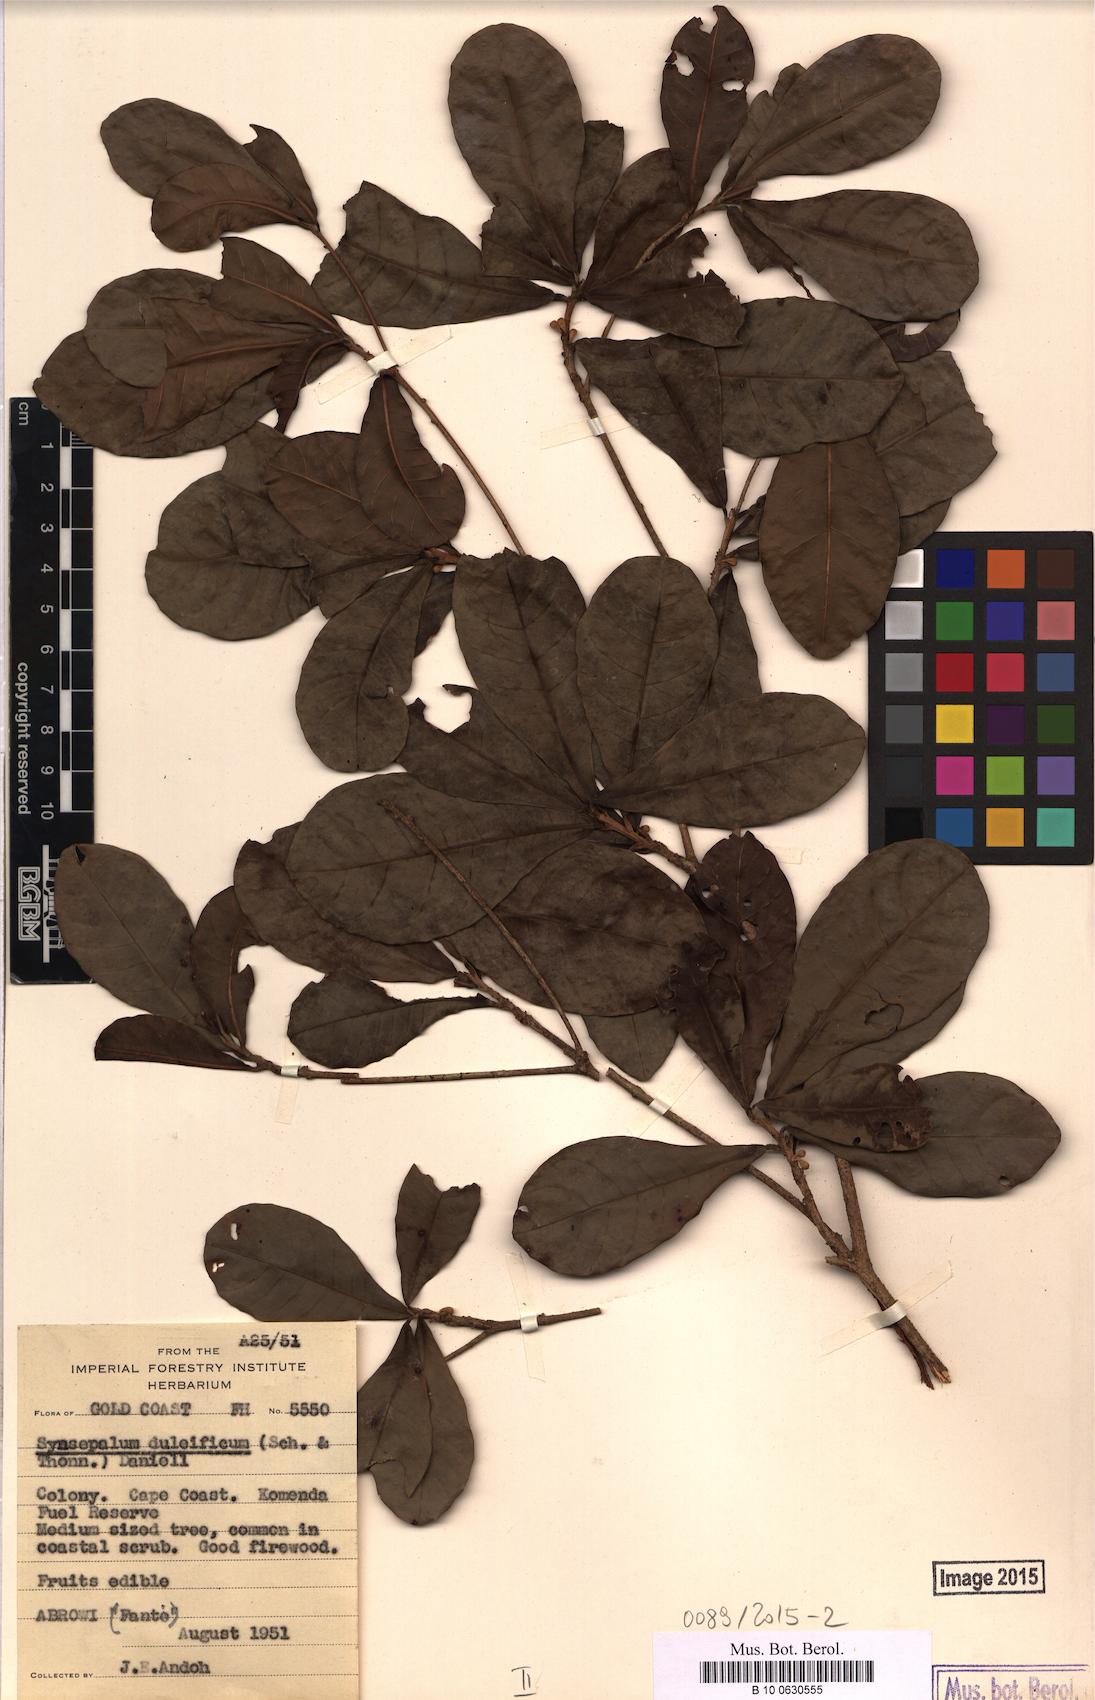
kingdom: Plantae
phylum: Tracheophyta
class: Magnoliopsida
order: Ericales
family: Sapotaceae
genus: Synsepalum
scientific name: Synsepalum dulcificum
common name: Miracle-fruit
